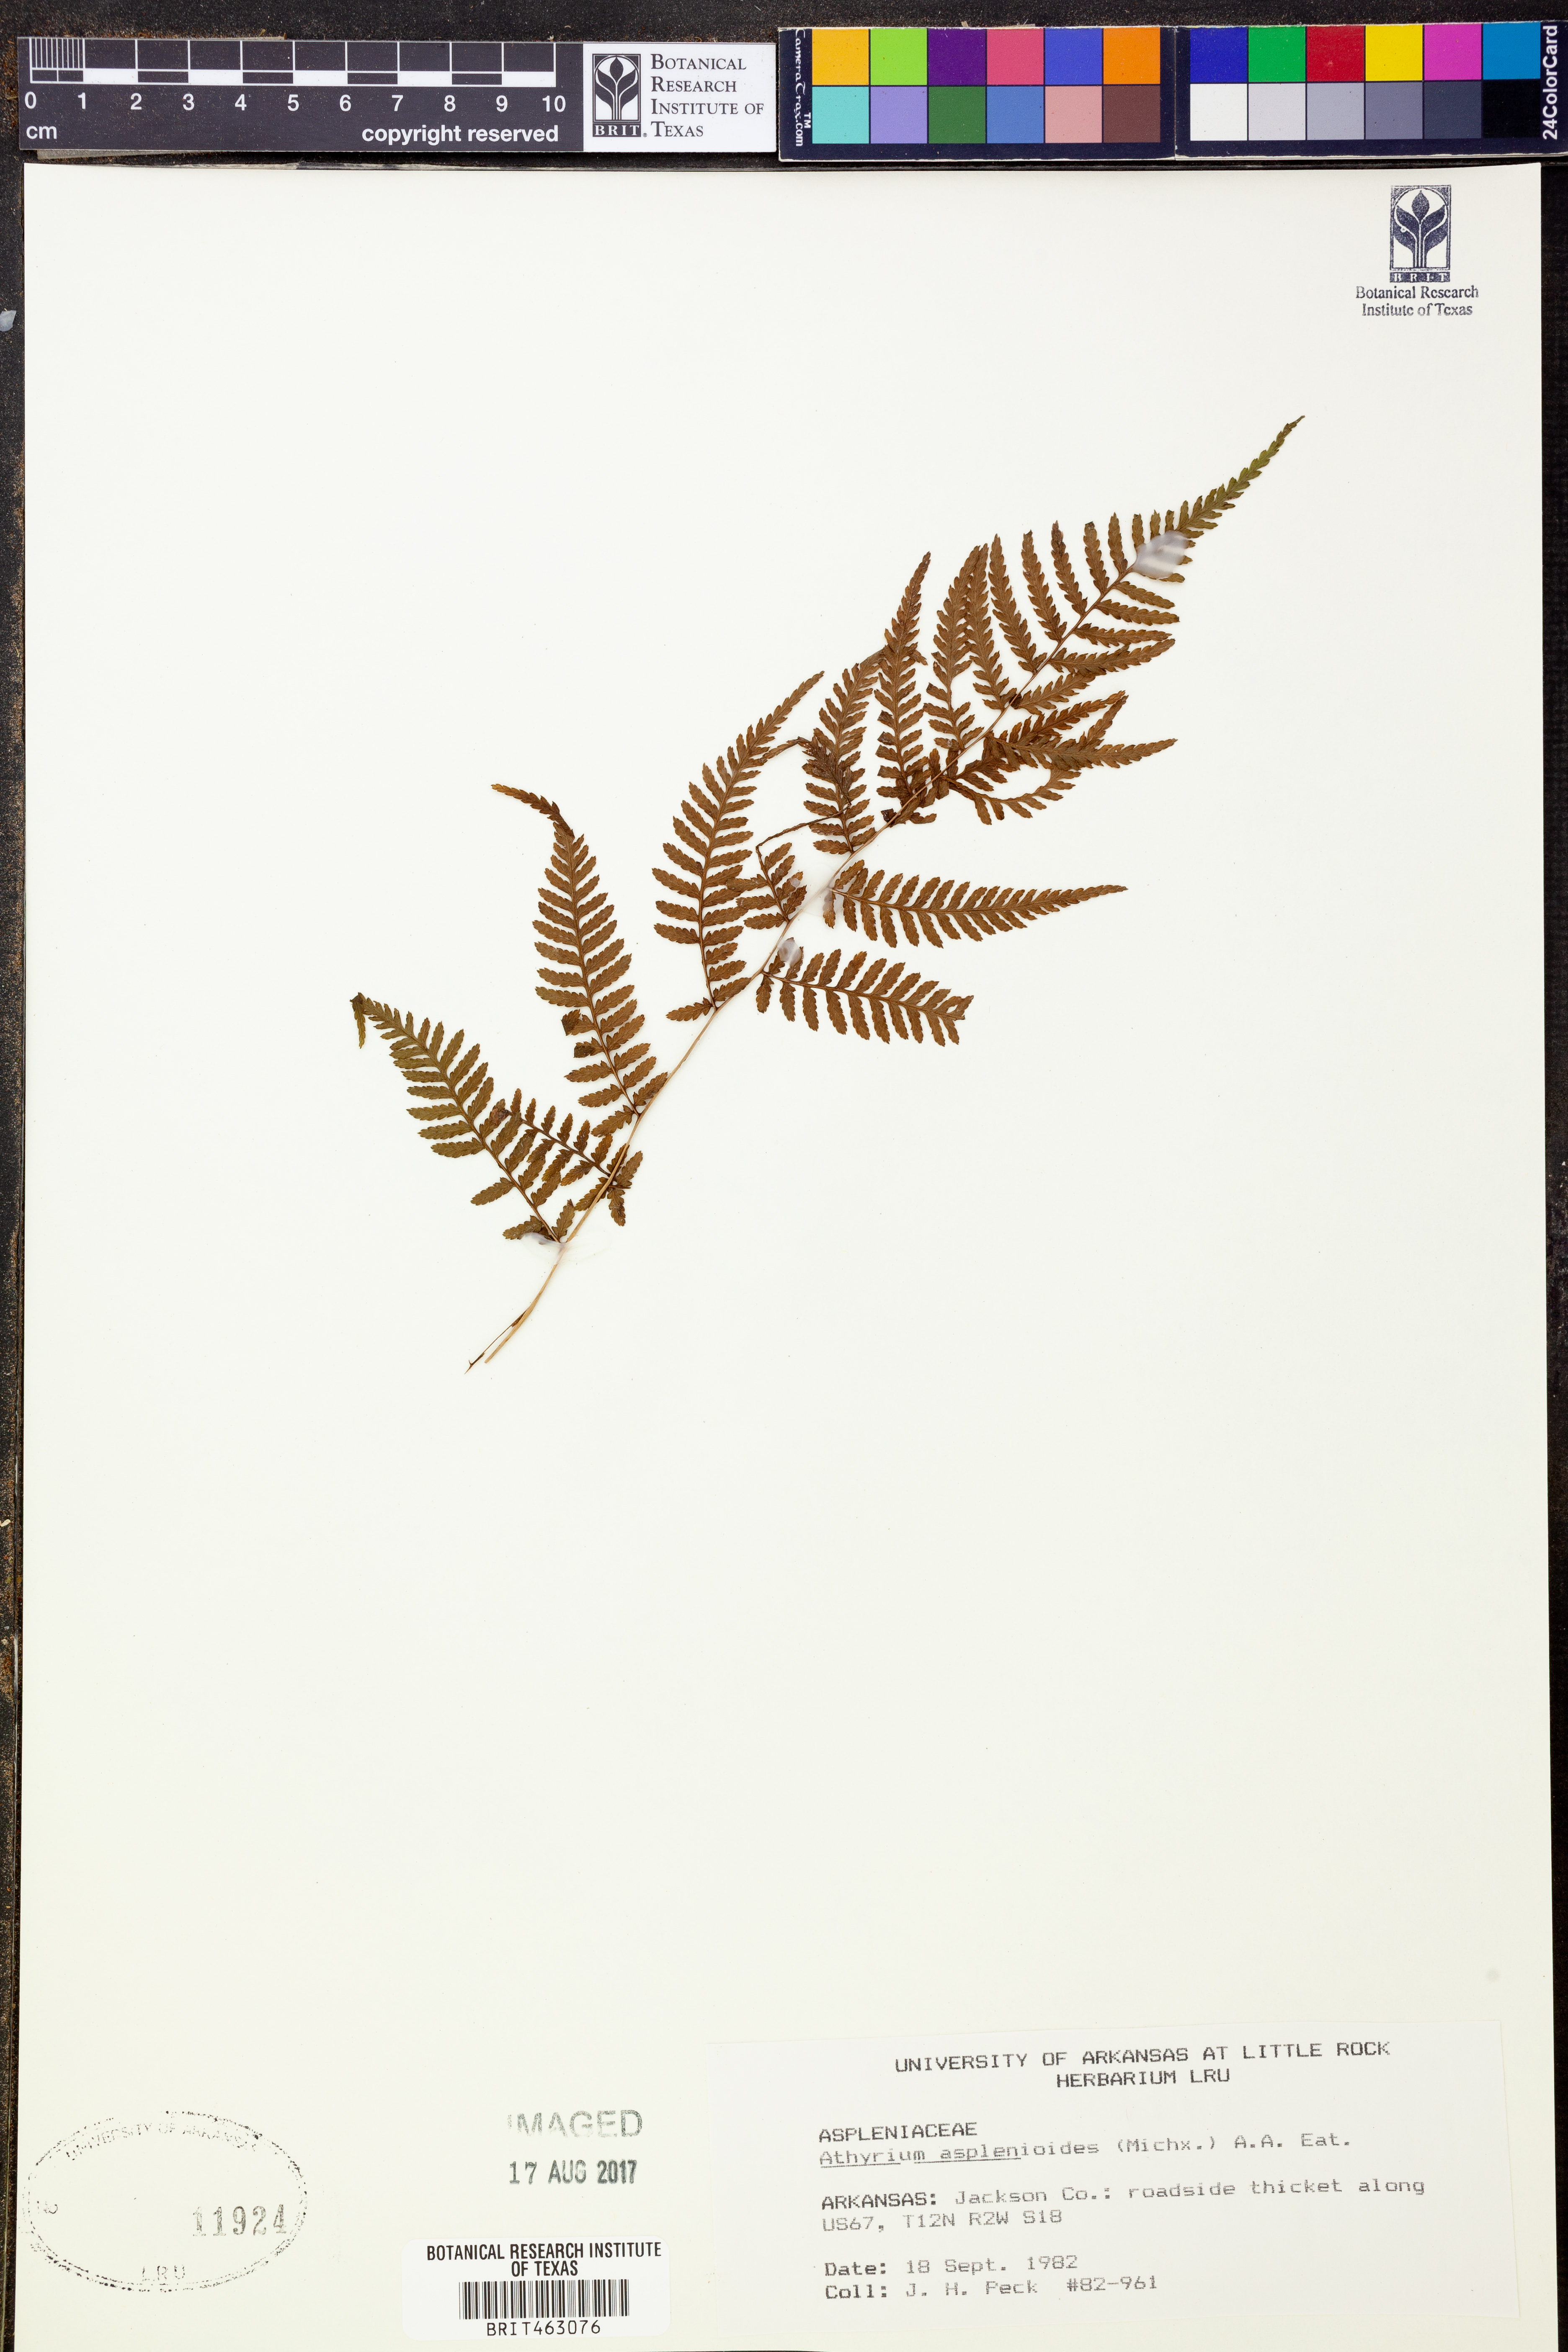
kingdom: Plantae
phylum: Tracheophyta
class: Polypodiopsida
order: Polypodiales
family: Athyriaceae
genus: Athyrium
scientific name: Athyrium asplenioides
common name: Southern lady fern
